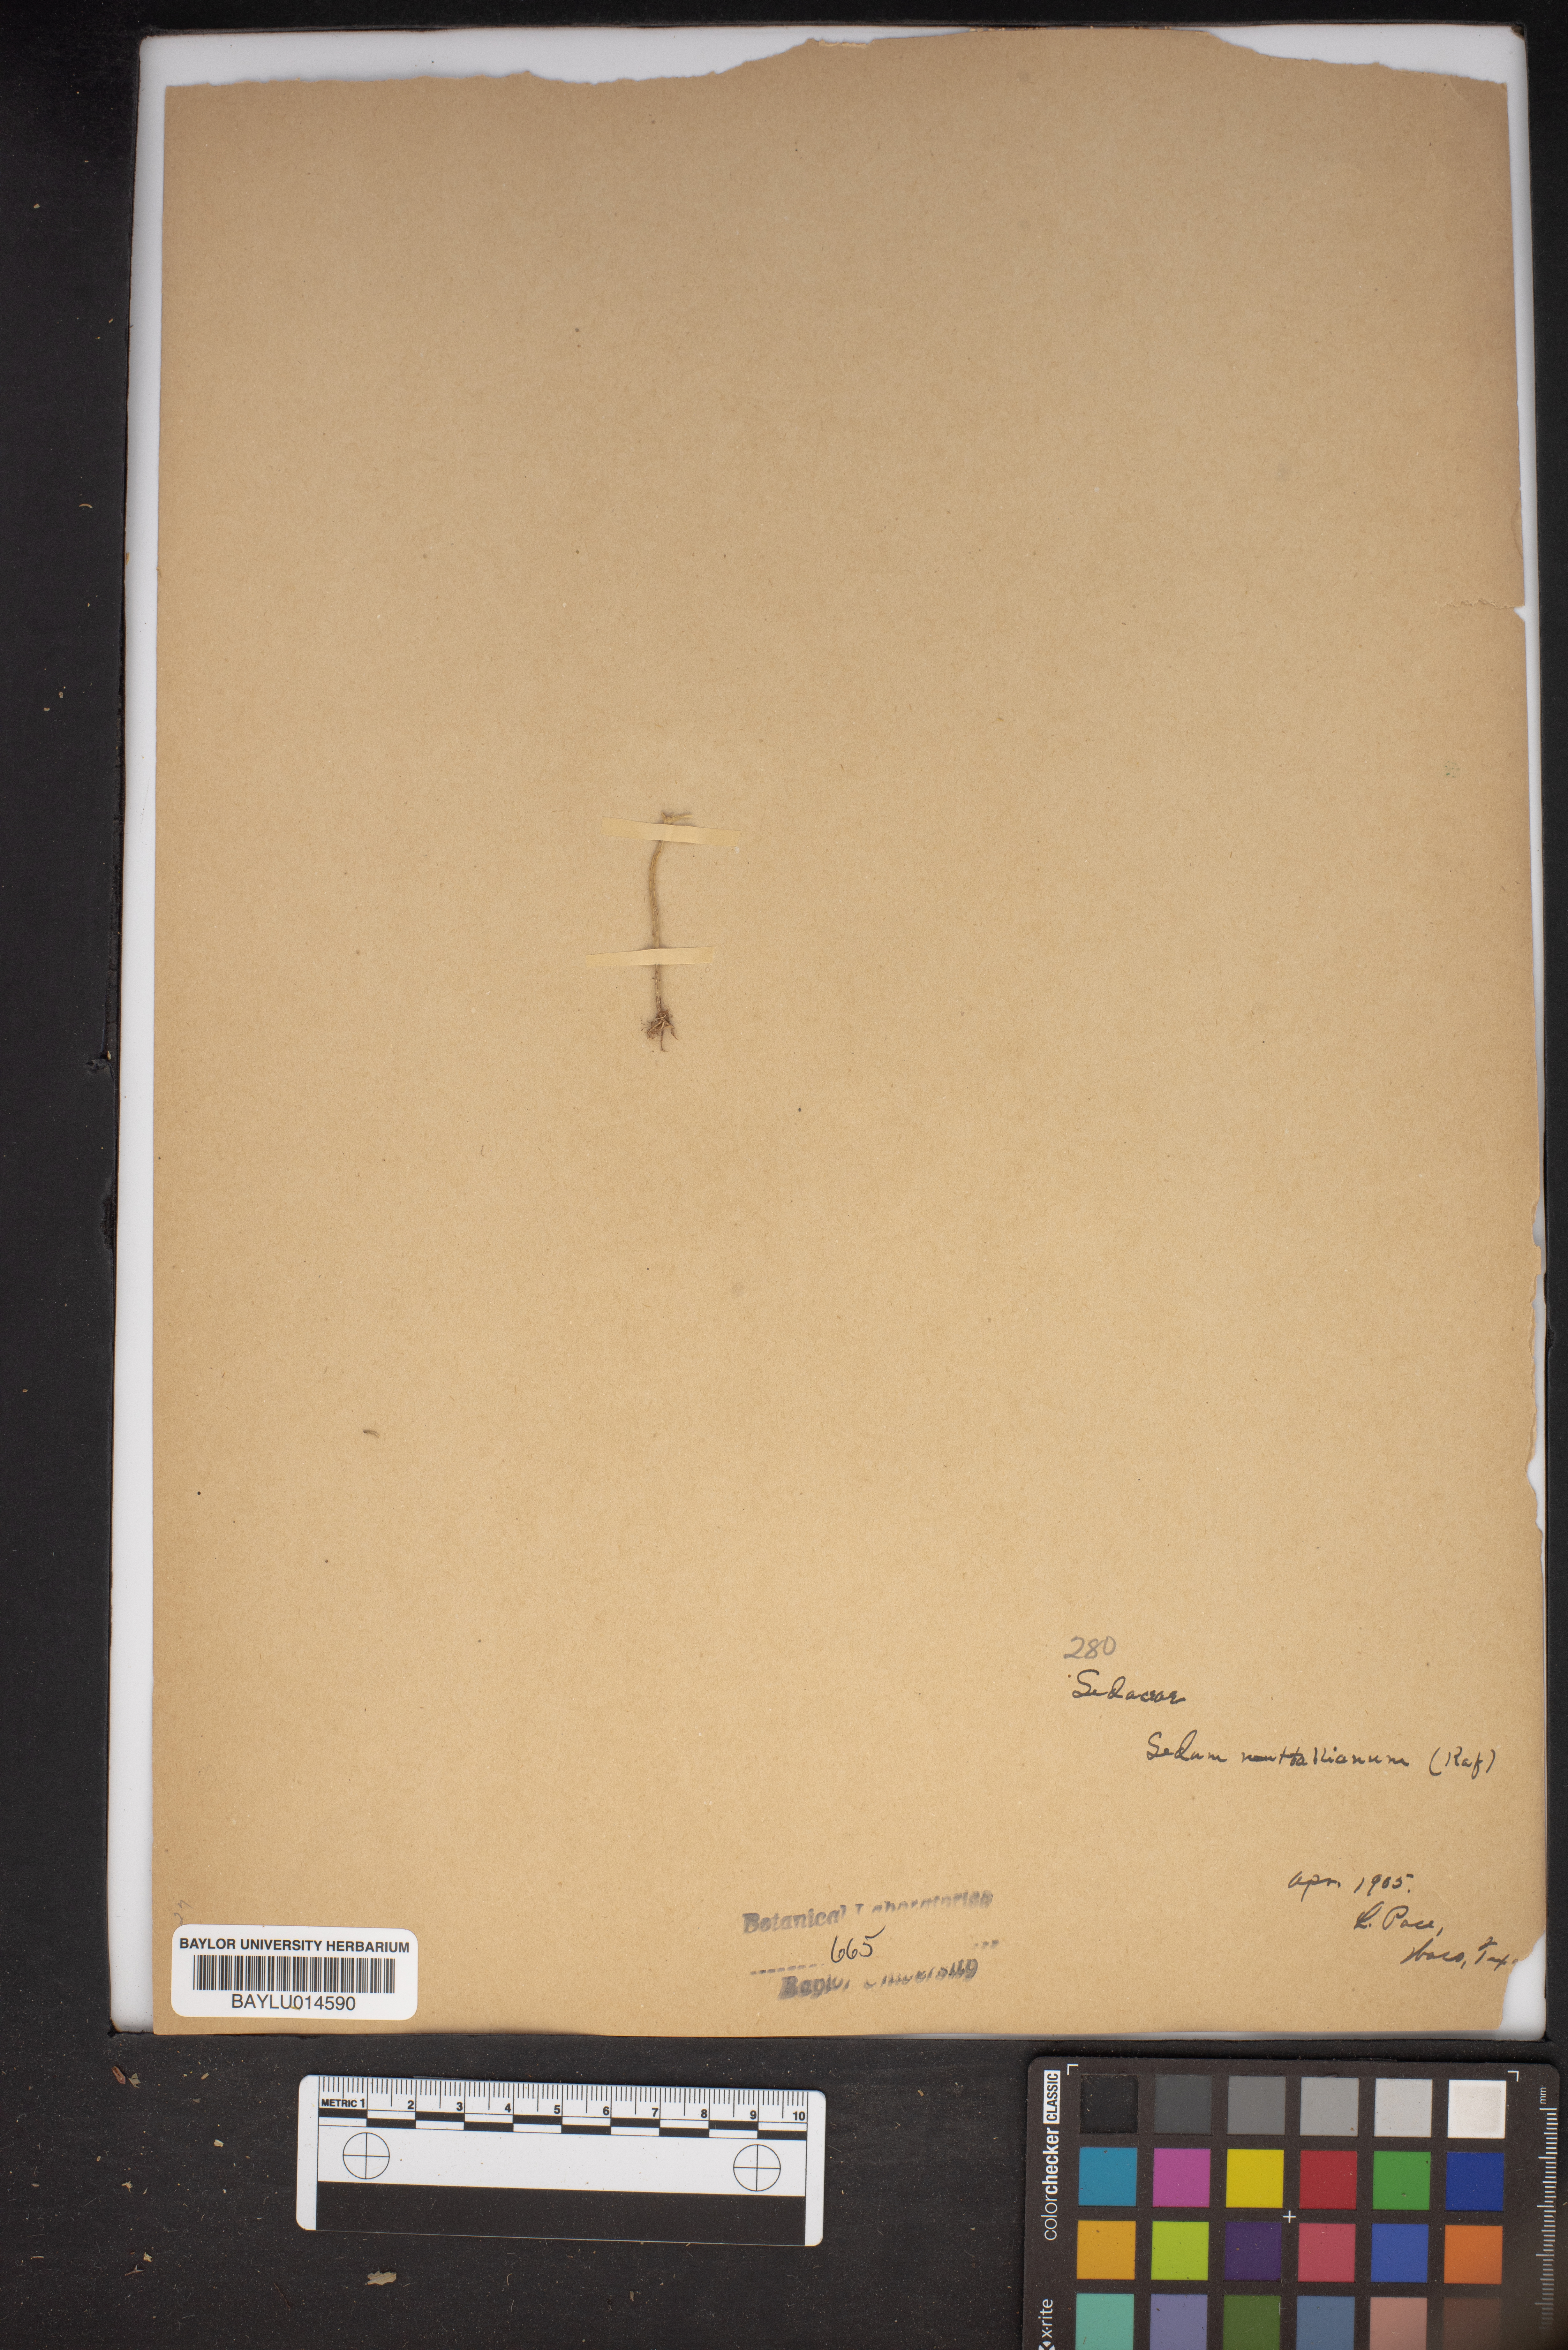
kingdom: Plantae
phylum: Tracheophyta
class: Magnoliopsida
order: Saxifragales
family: Crassulaceae
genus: Sedum
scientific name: Sedum nuttallii
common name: Yellow stonecrop
